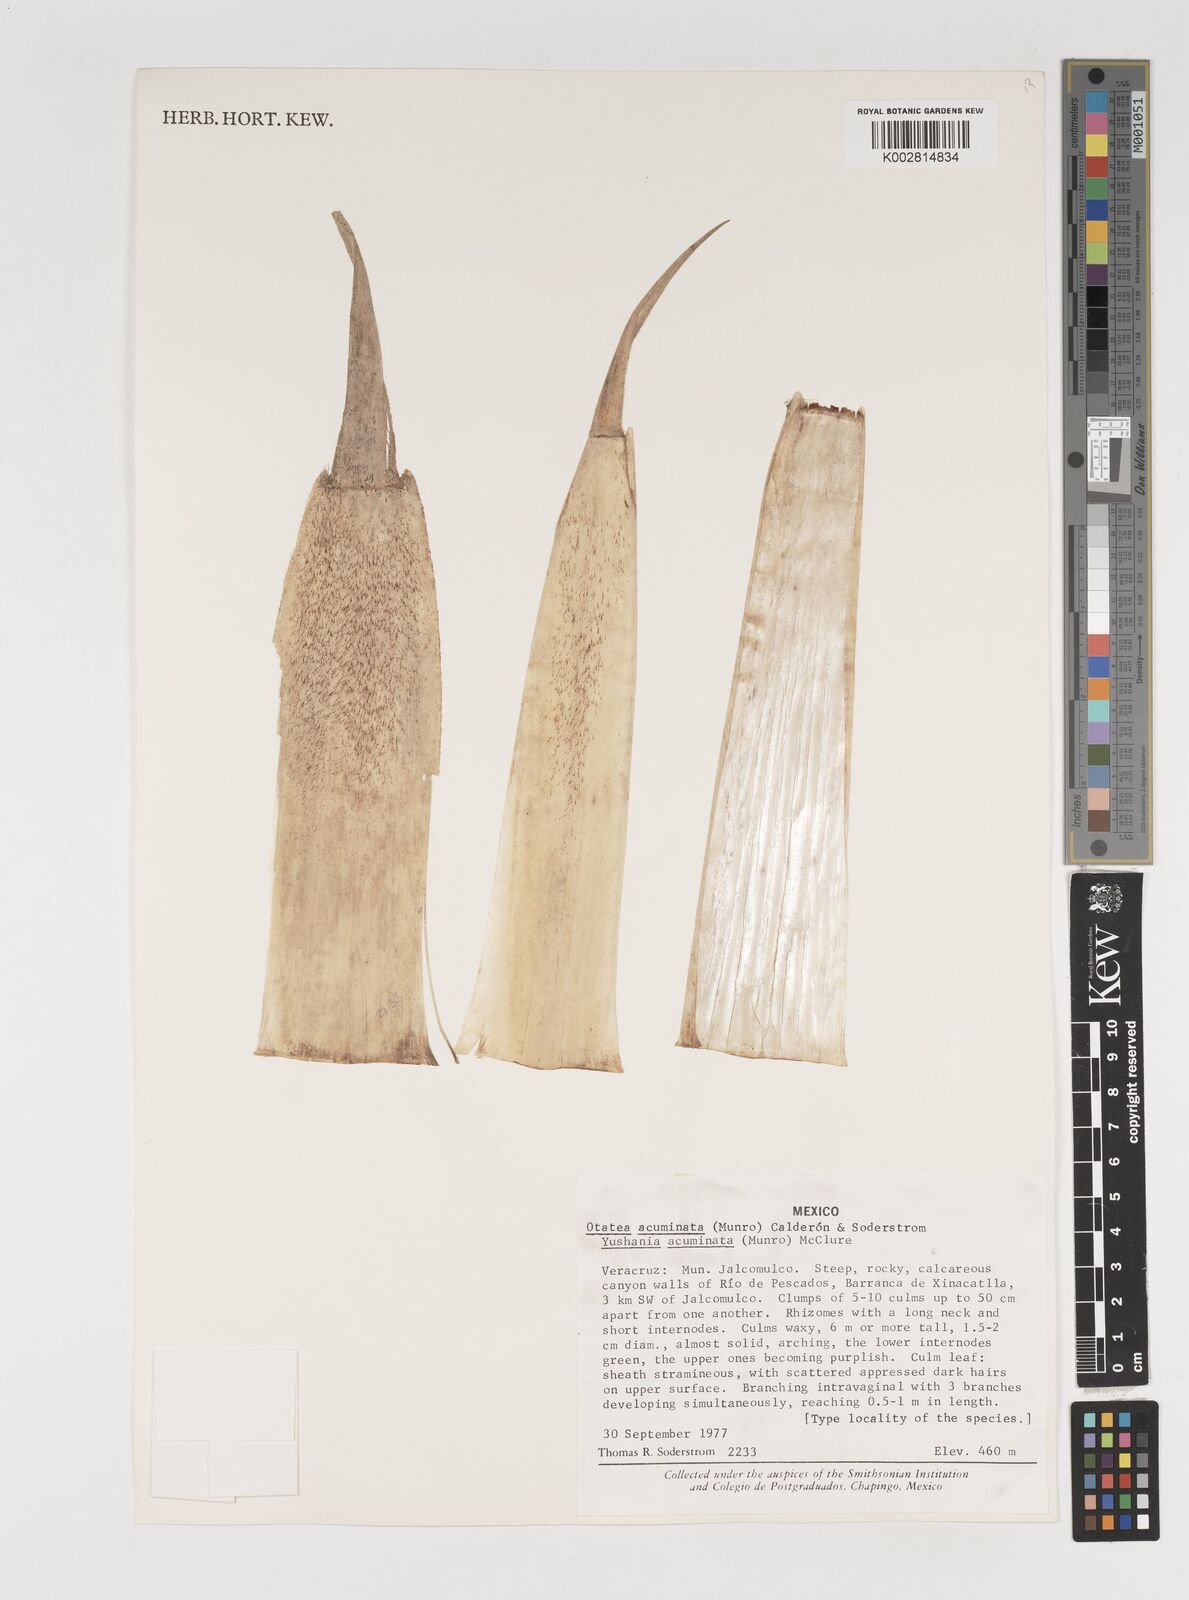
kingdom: Plantae
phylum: Tracheophyta
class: Liliopsida
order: Poales
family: Poaceae
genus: Olmeca
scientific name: Olmeca
